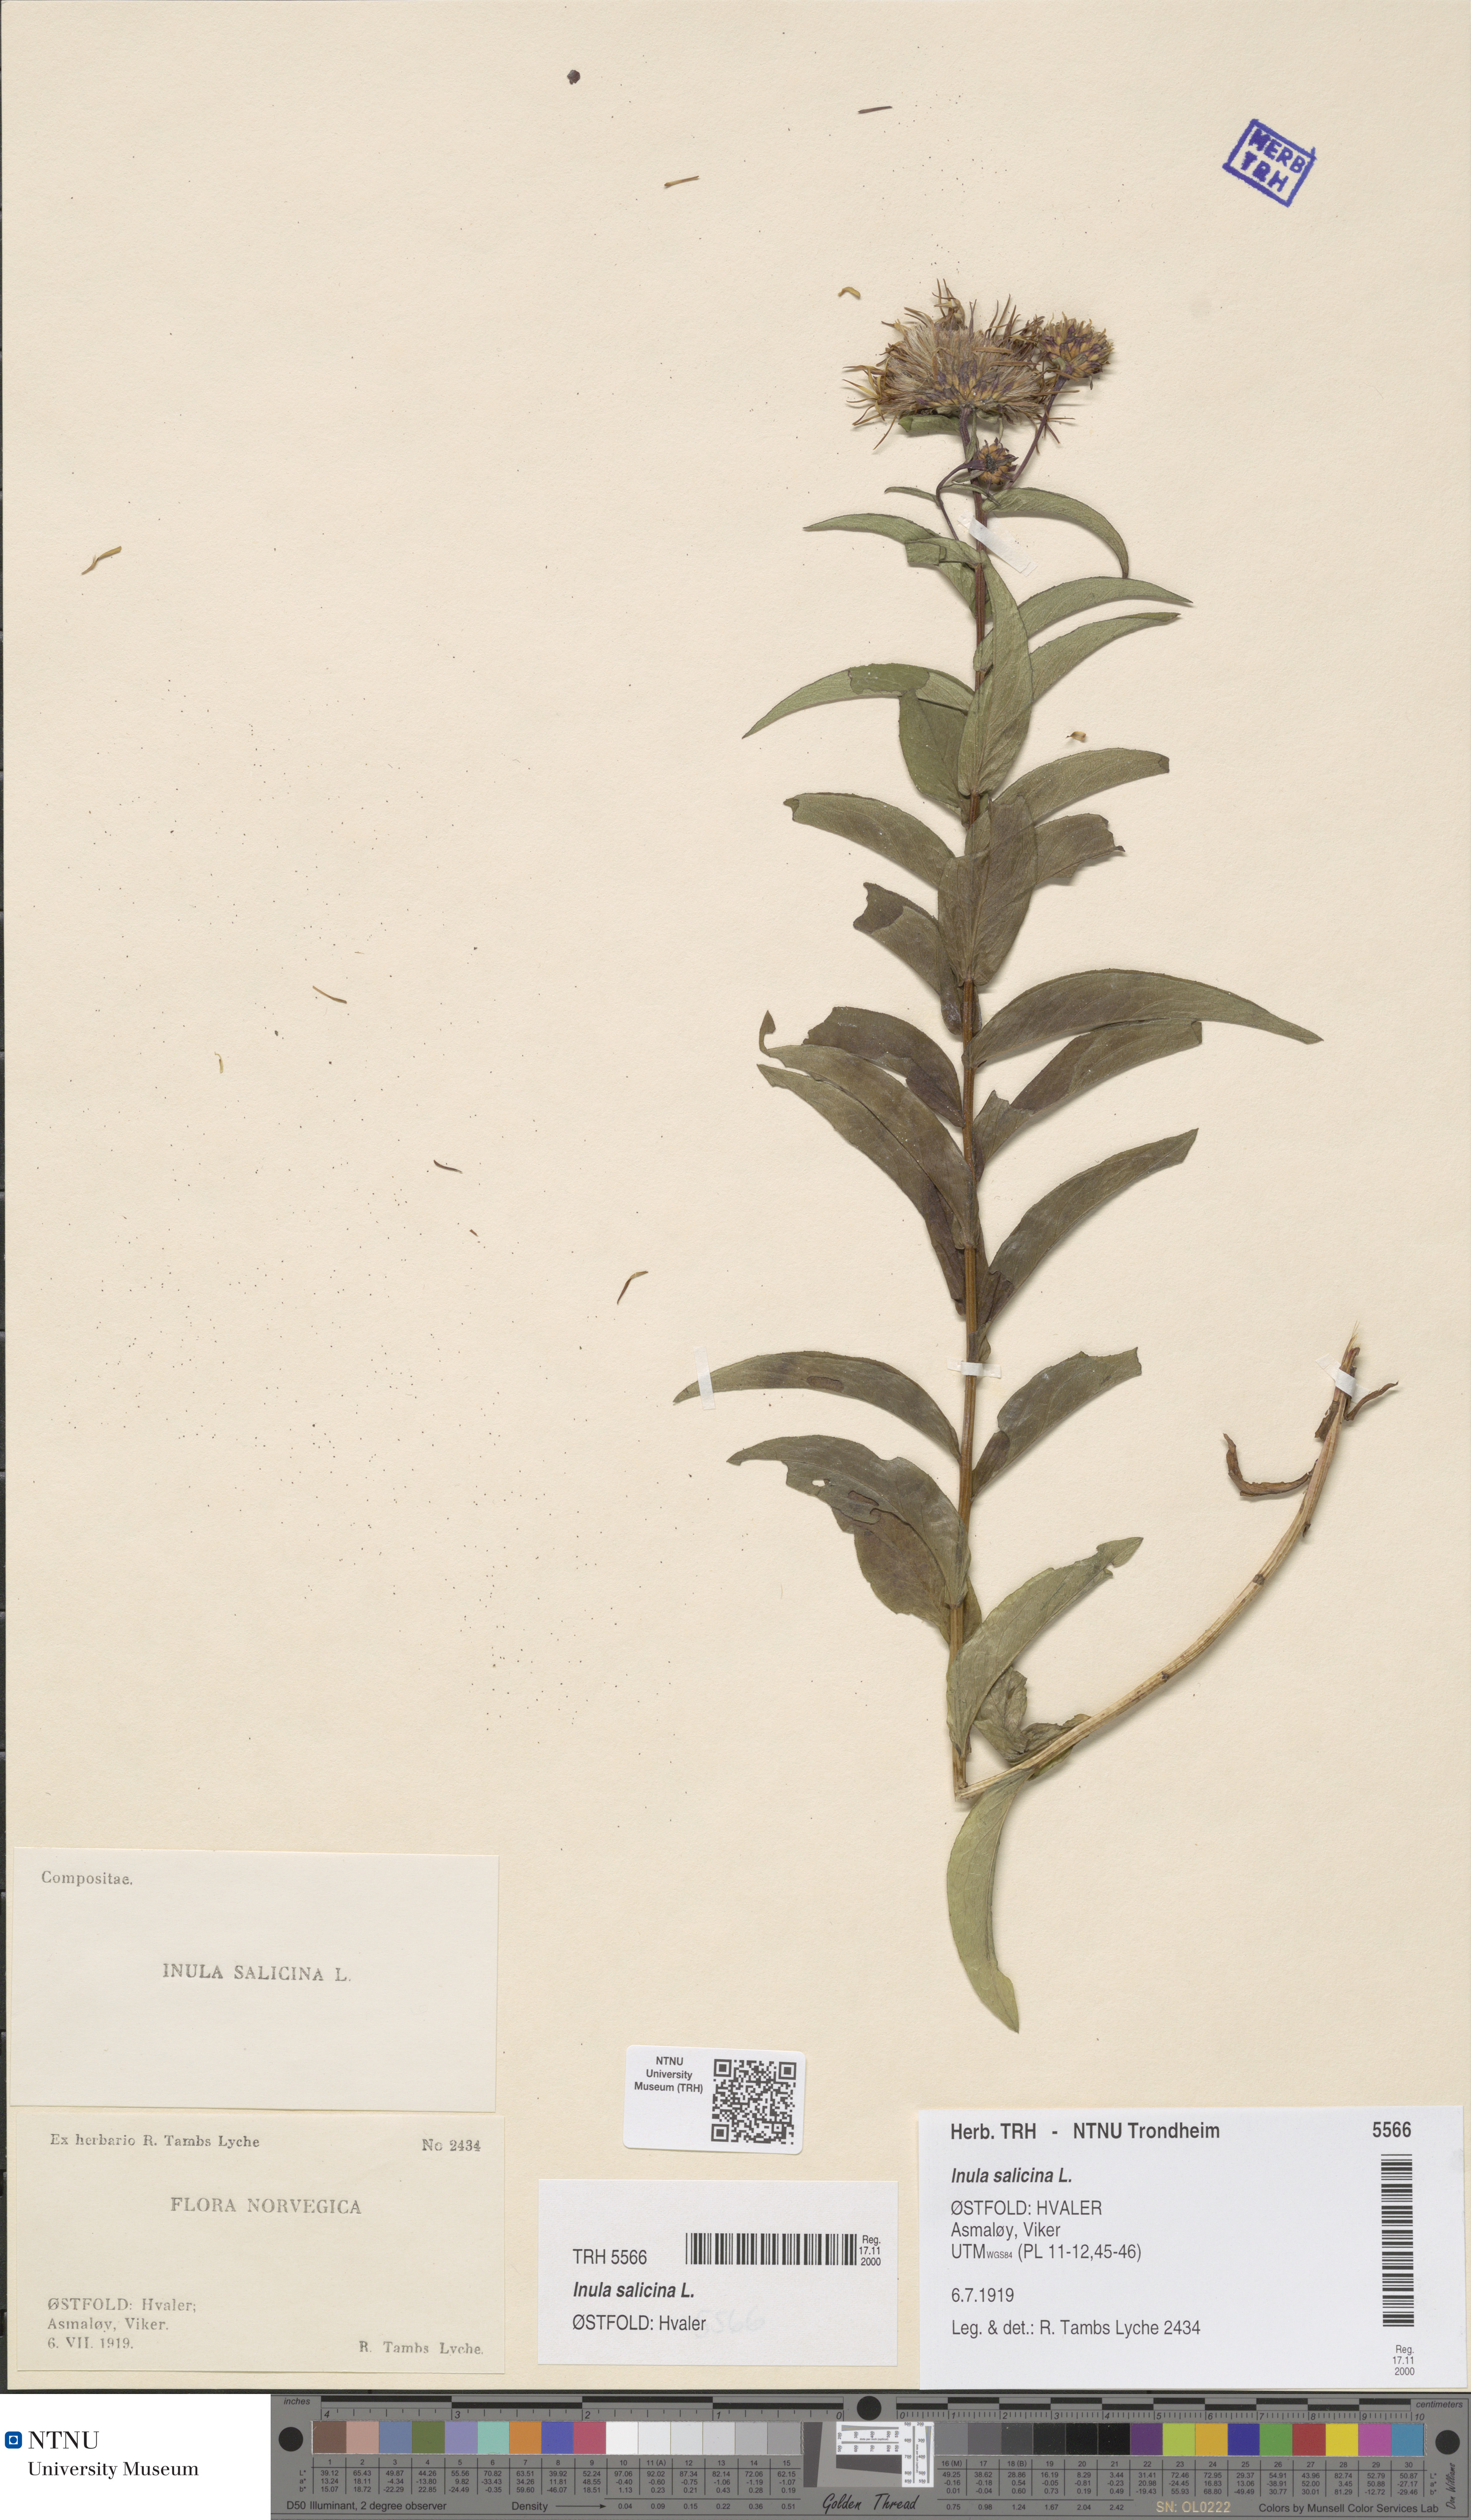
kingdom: Plantae
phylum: Tracheophyta
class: Magnoliopsida
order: Asterales
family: Asteraceae
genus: Pentanema
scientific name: Pentanema salicinum
